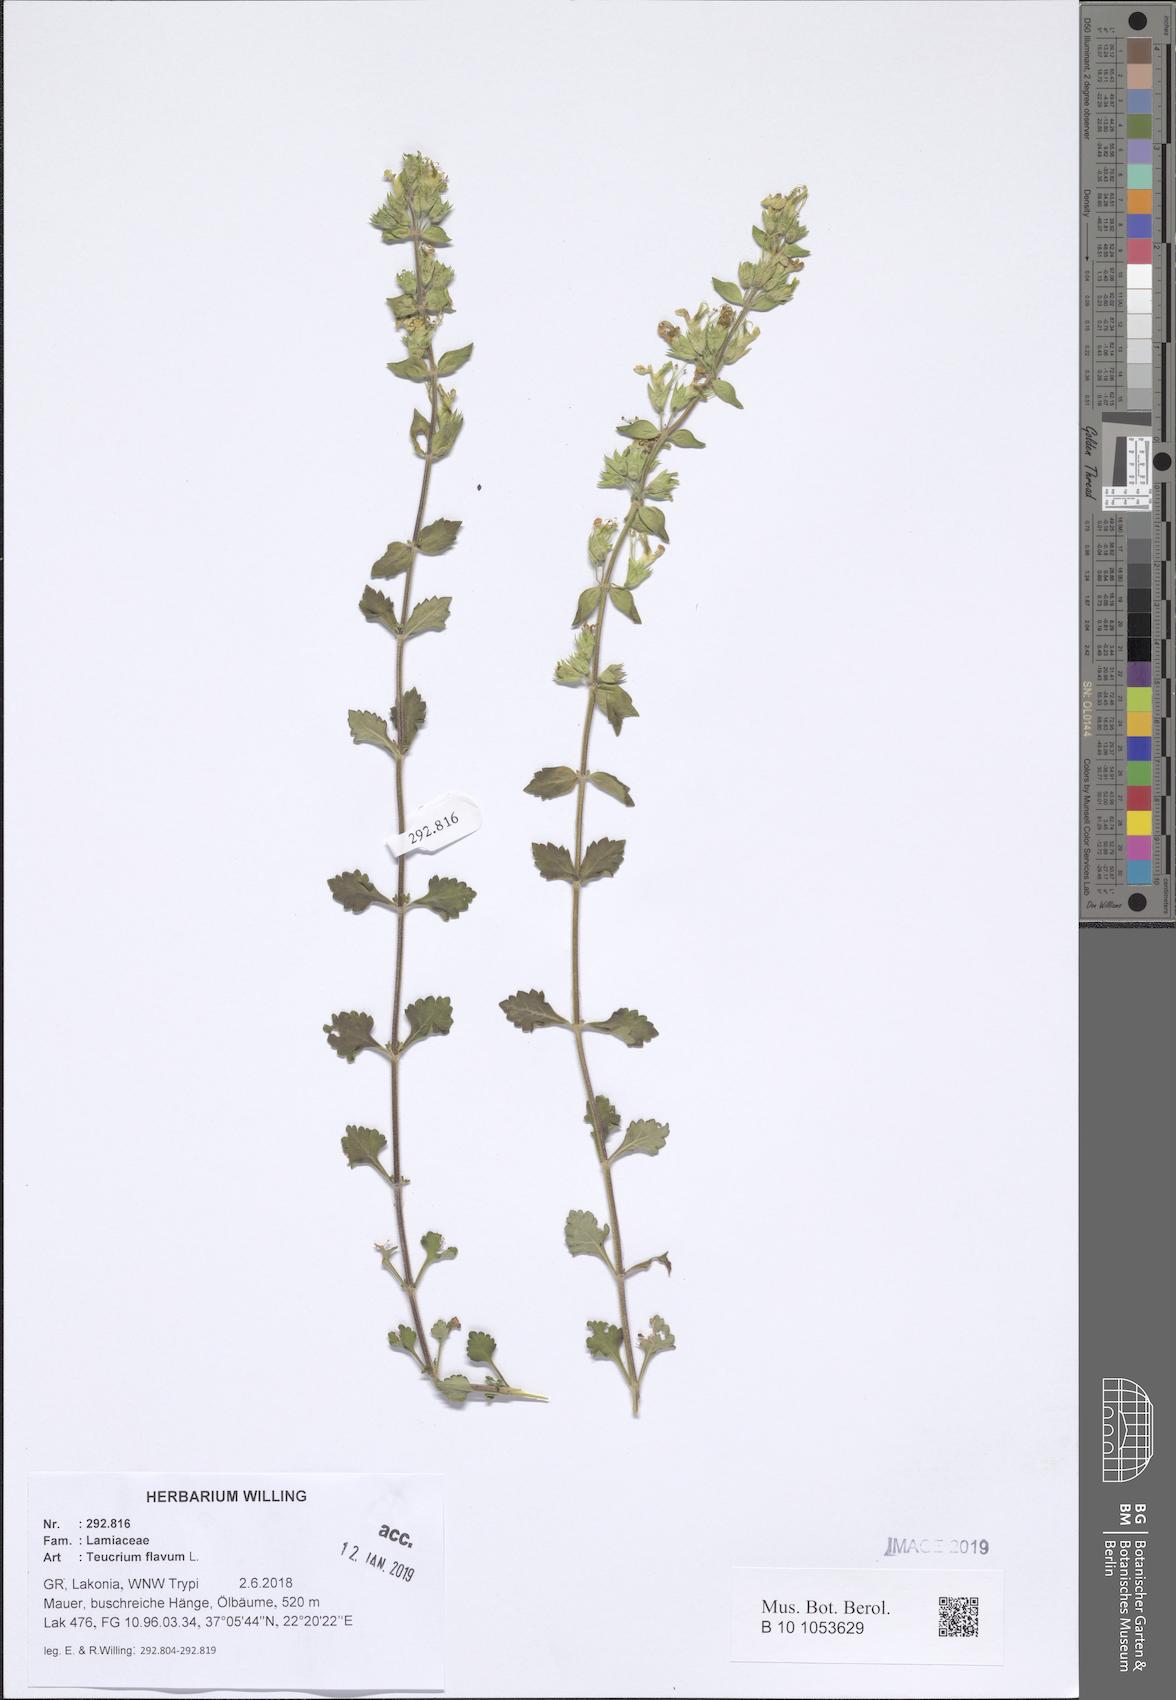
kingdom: Plantae
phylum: Tracheophyta
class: Magnoliopsida
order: Lamiales
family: Lamiaceae
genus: Teucrium
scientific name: Teucrium flavum
